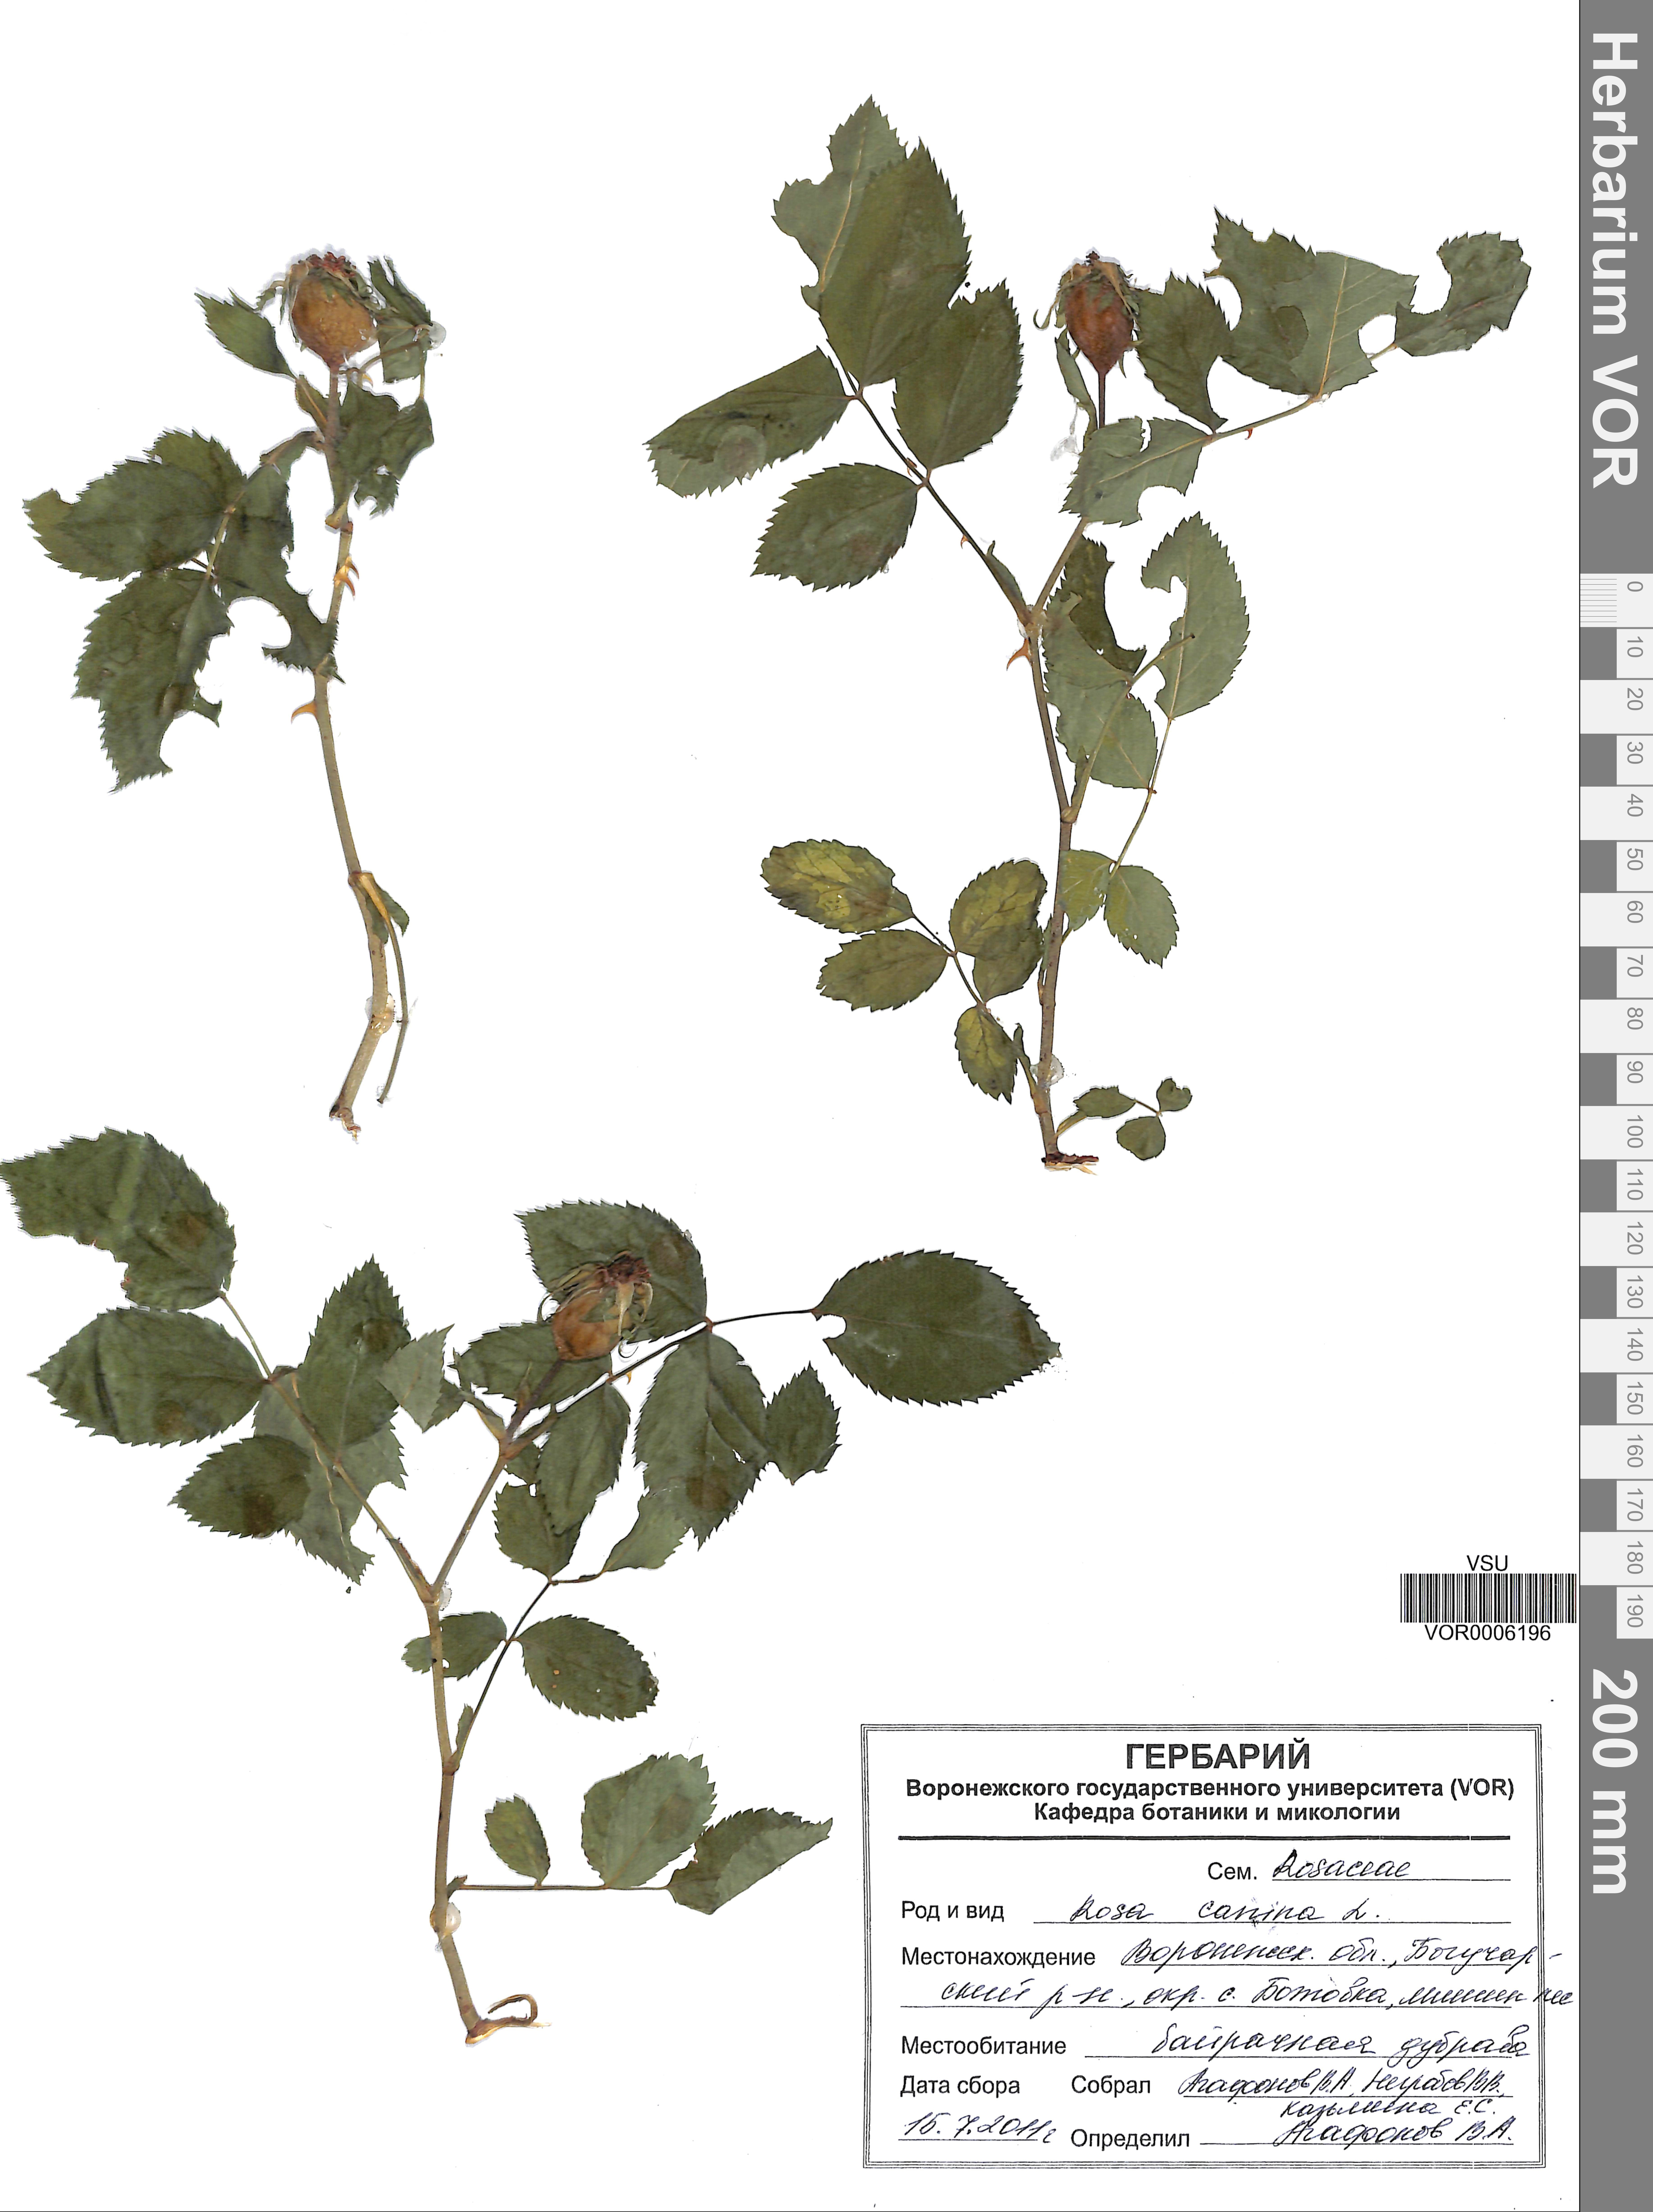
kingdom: Plantae
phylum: Tracheophyta
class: Magnoliopsida
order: Rosales
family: Rosaceae
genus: Rosa
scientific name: Rosa canina
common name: Dog rose
